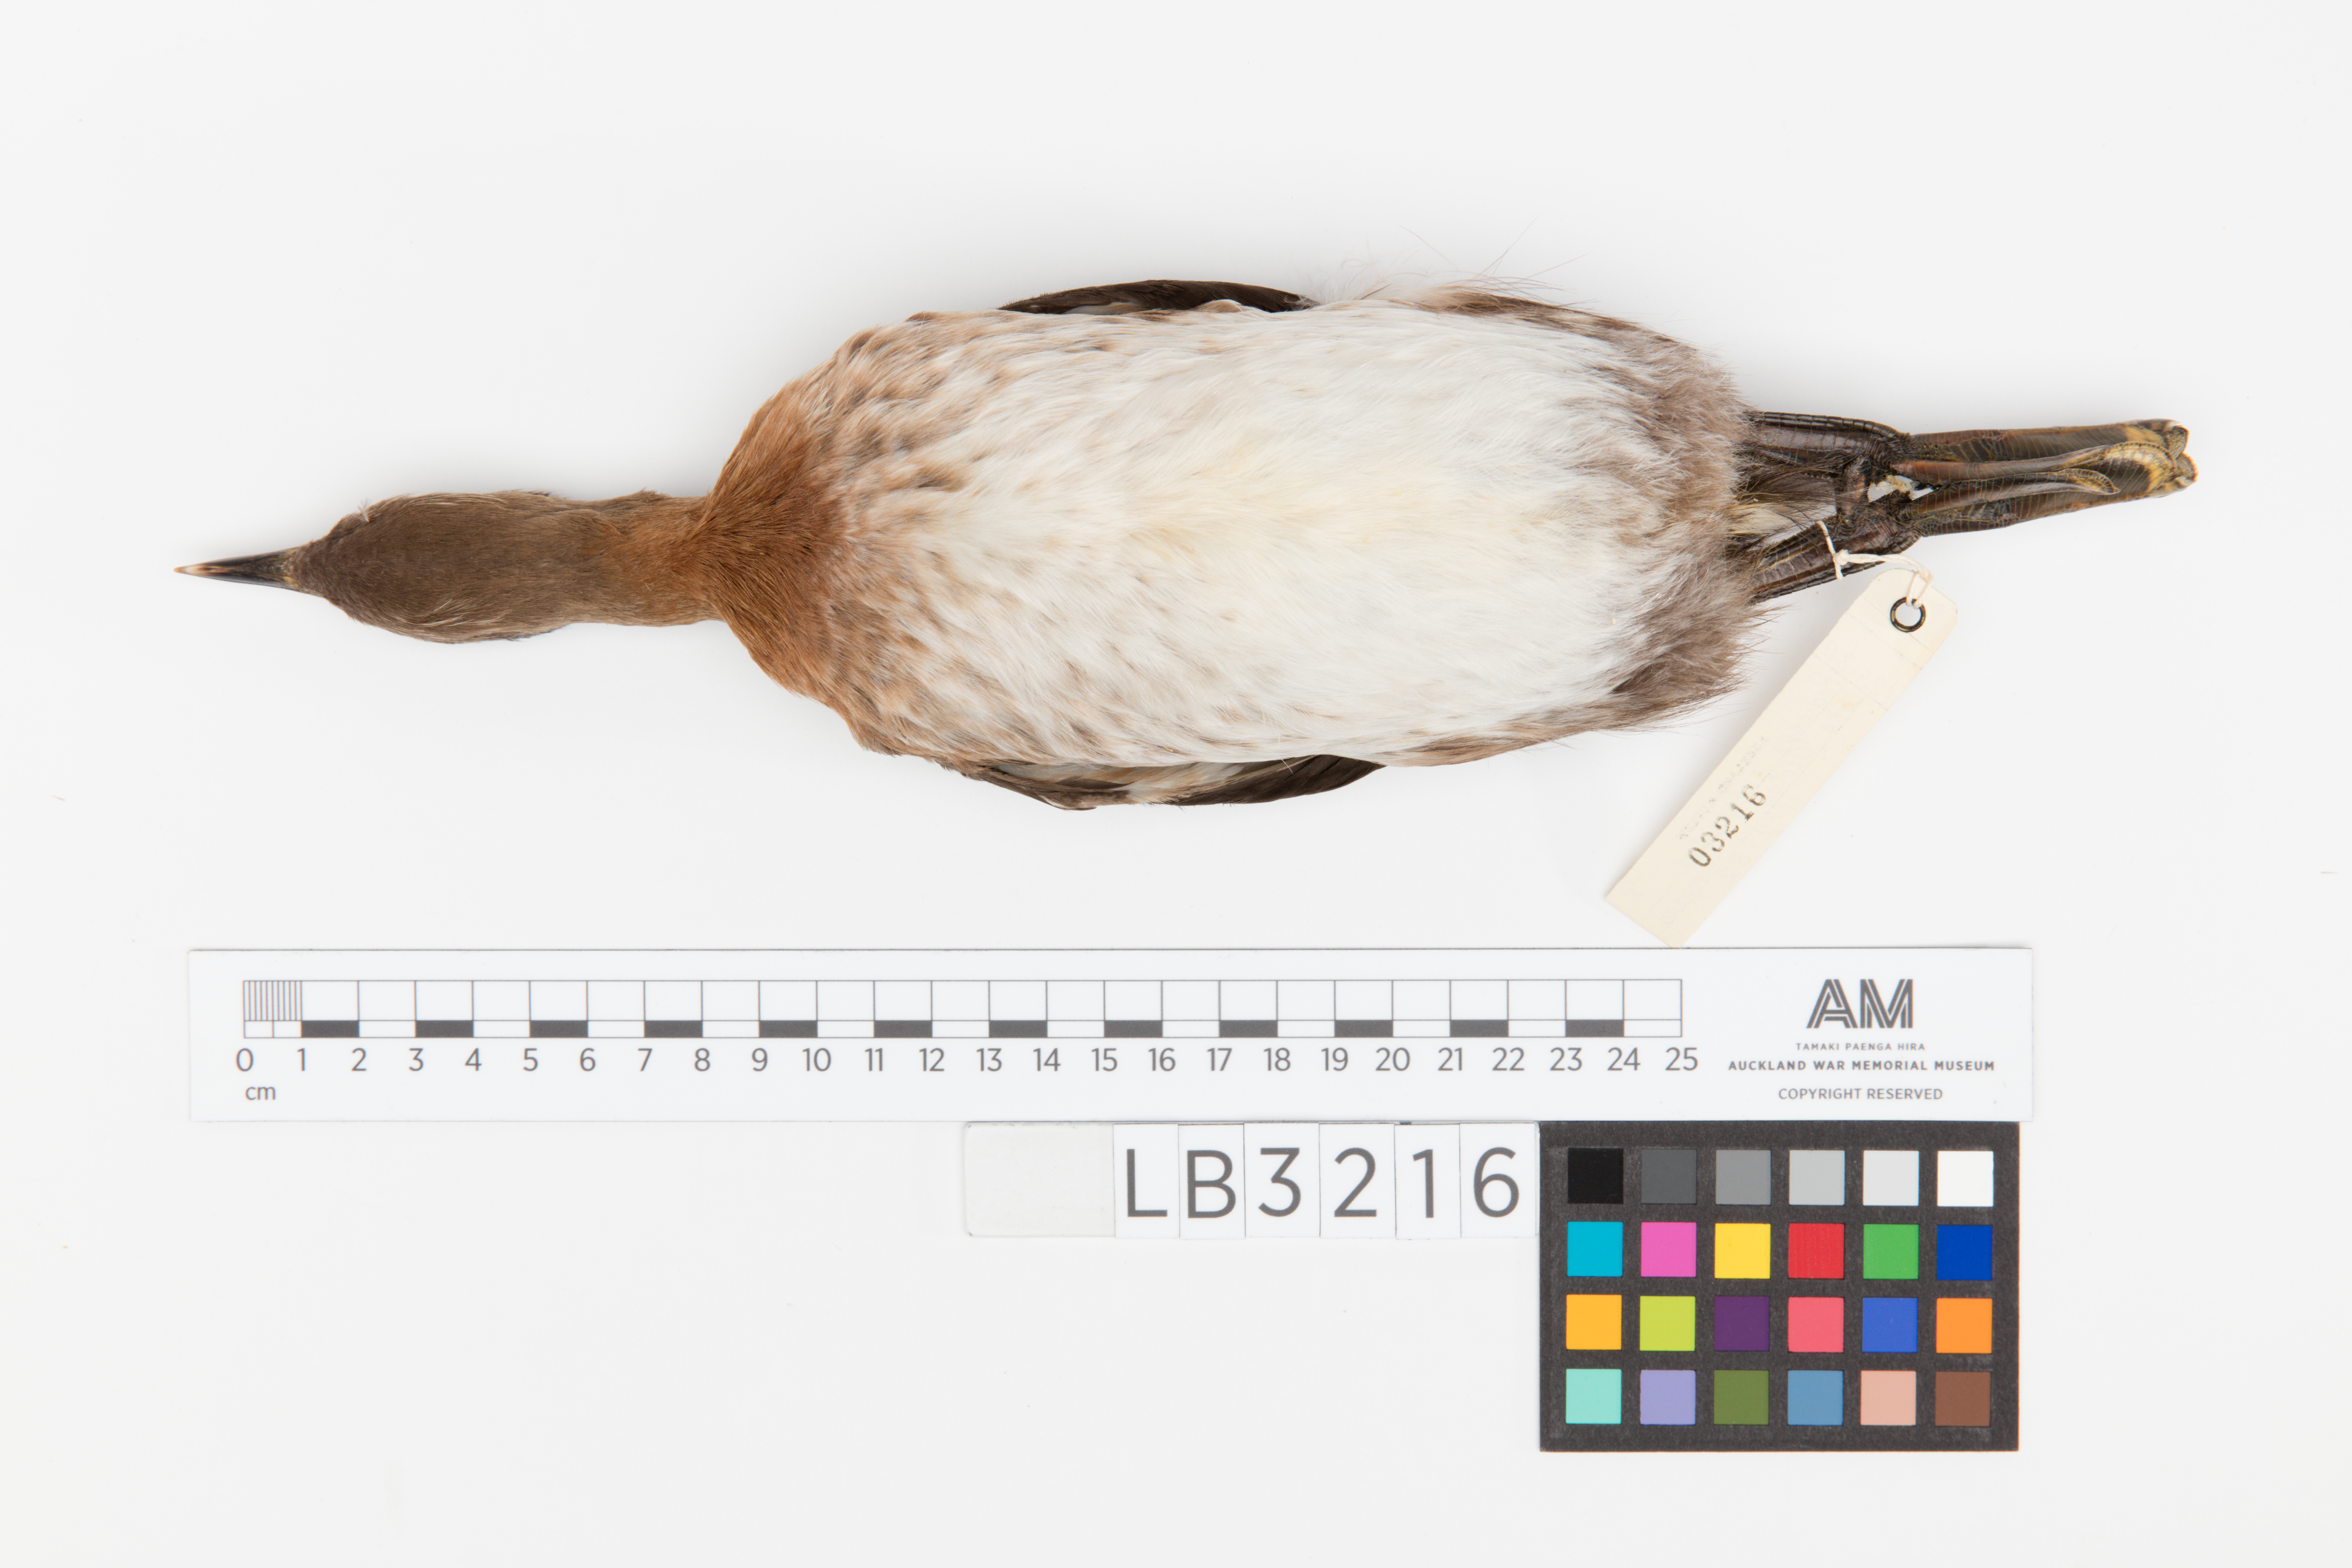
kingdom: Animalia
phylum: Chordata
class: Aves
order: Podicipediformes
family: Podicipedidae
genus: Poliocephalus
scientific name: Poliocephalus rufopectus
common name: New zealand grebe
